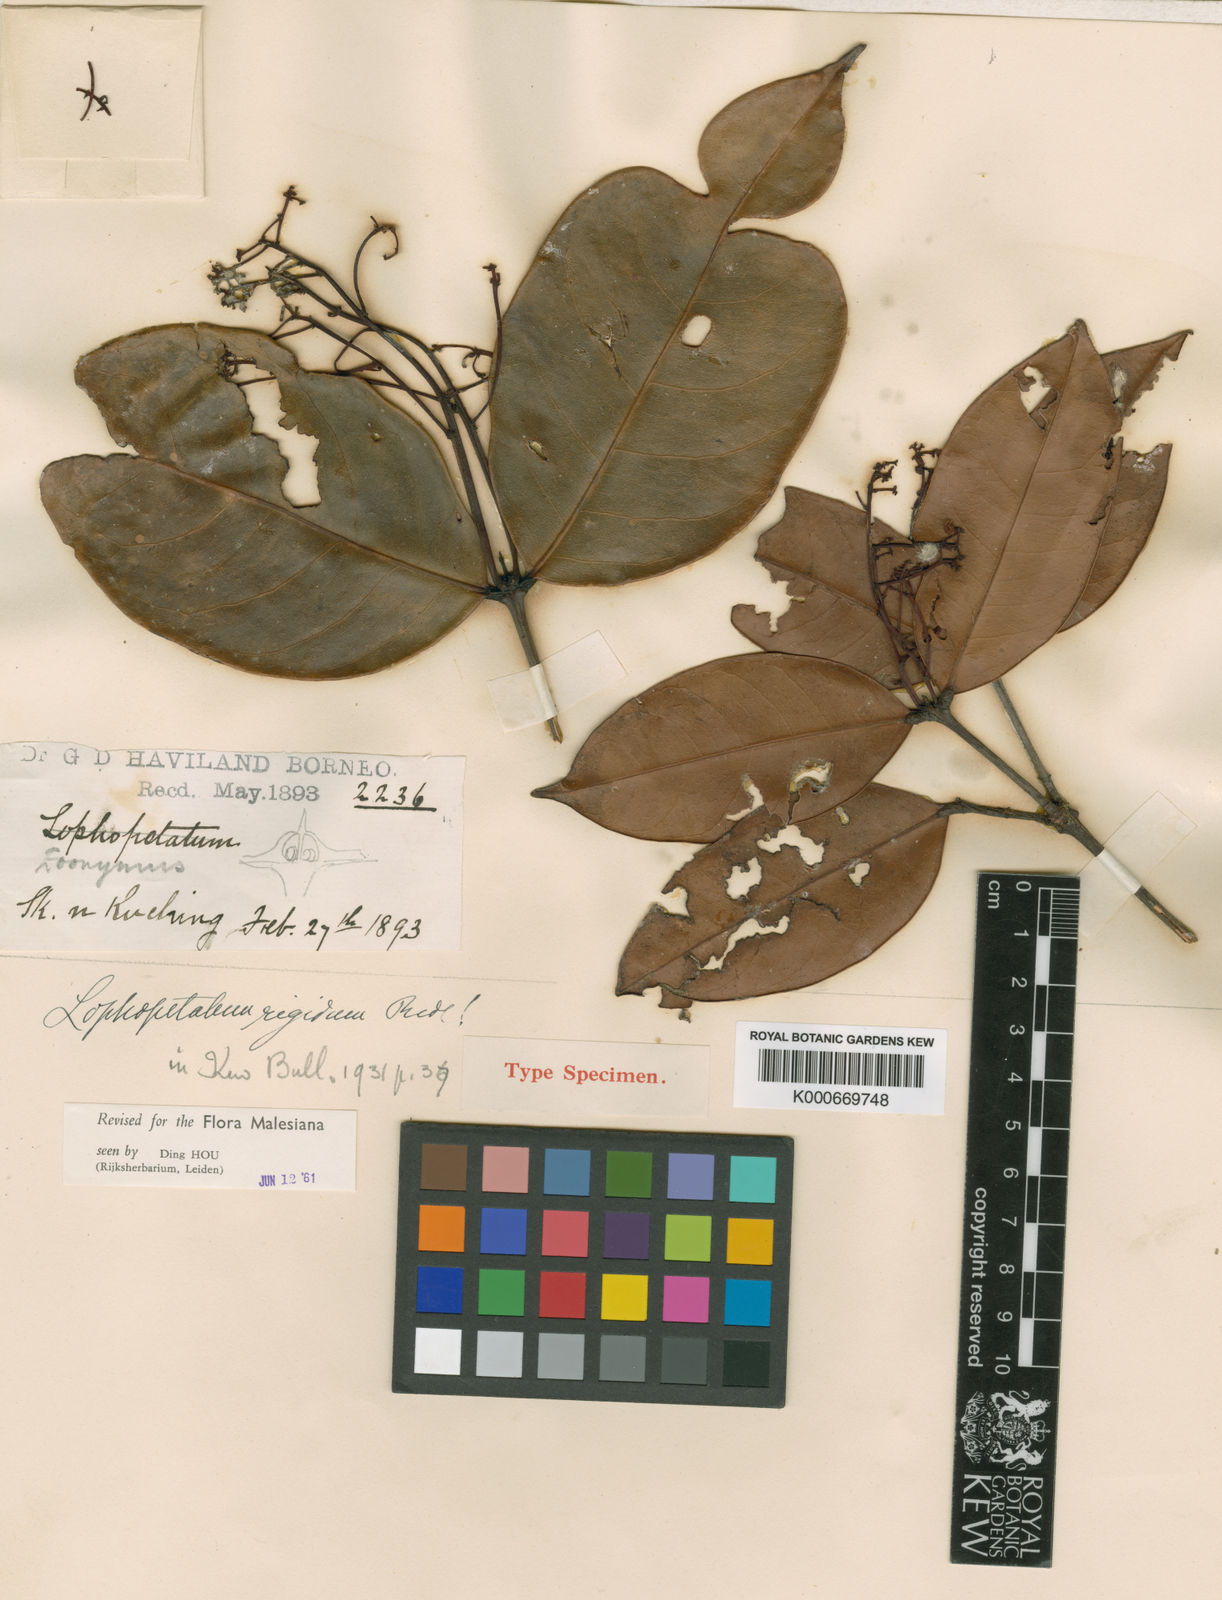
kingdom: Plantae
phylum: Tracheophyta
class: Magnoliopsida
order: Celastrales
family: Celastraceae
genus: Lophopetalum
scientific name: Lophopetalum rigidum
